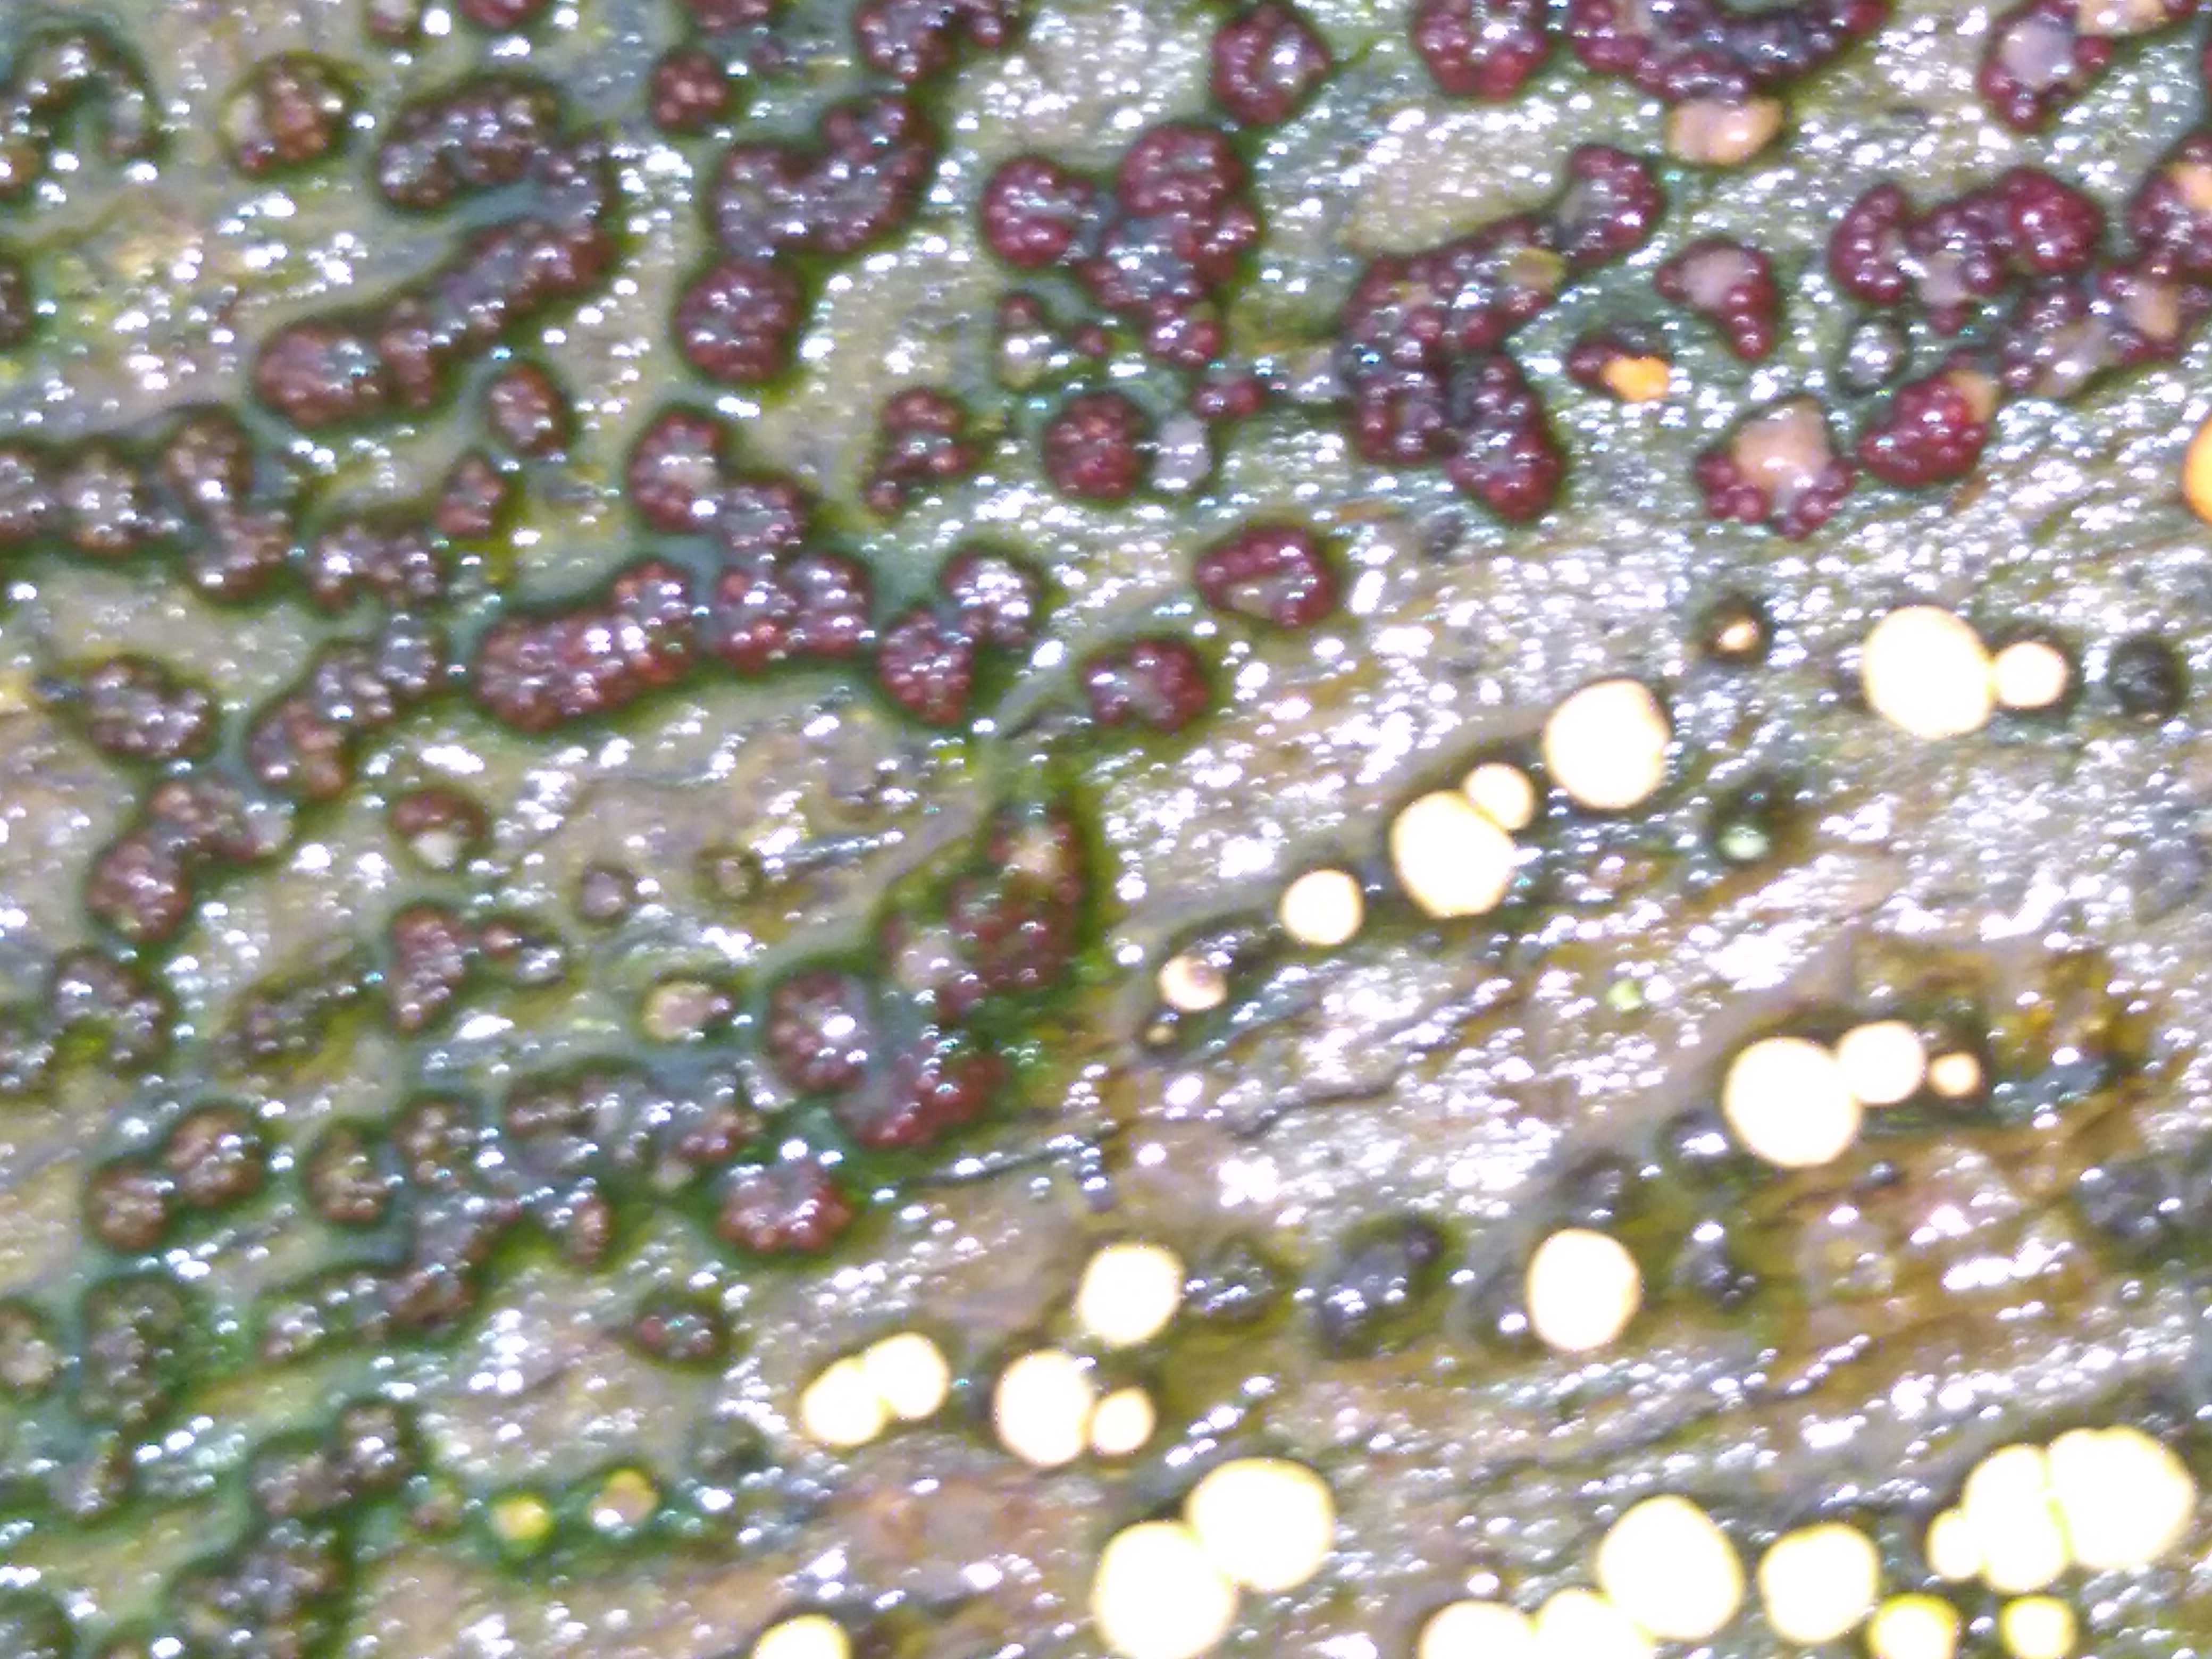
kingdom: Fungi
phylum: Ascomycota
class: Sordariomycetes
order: Hypocreales
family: Nectriaceae
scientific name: Nectriaceae
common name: cinnobersvampfamilien
